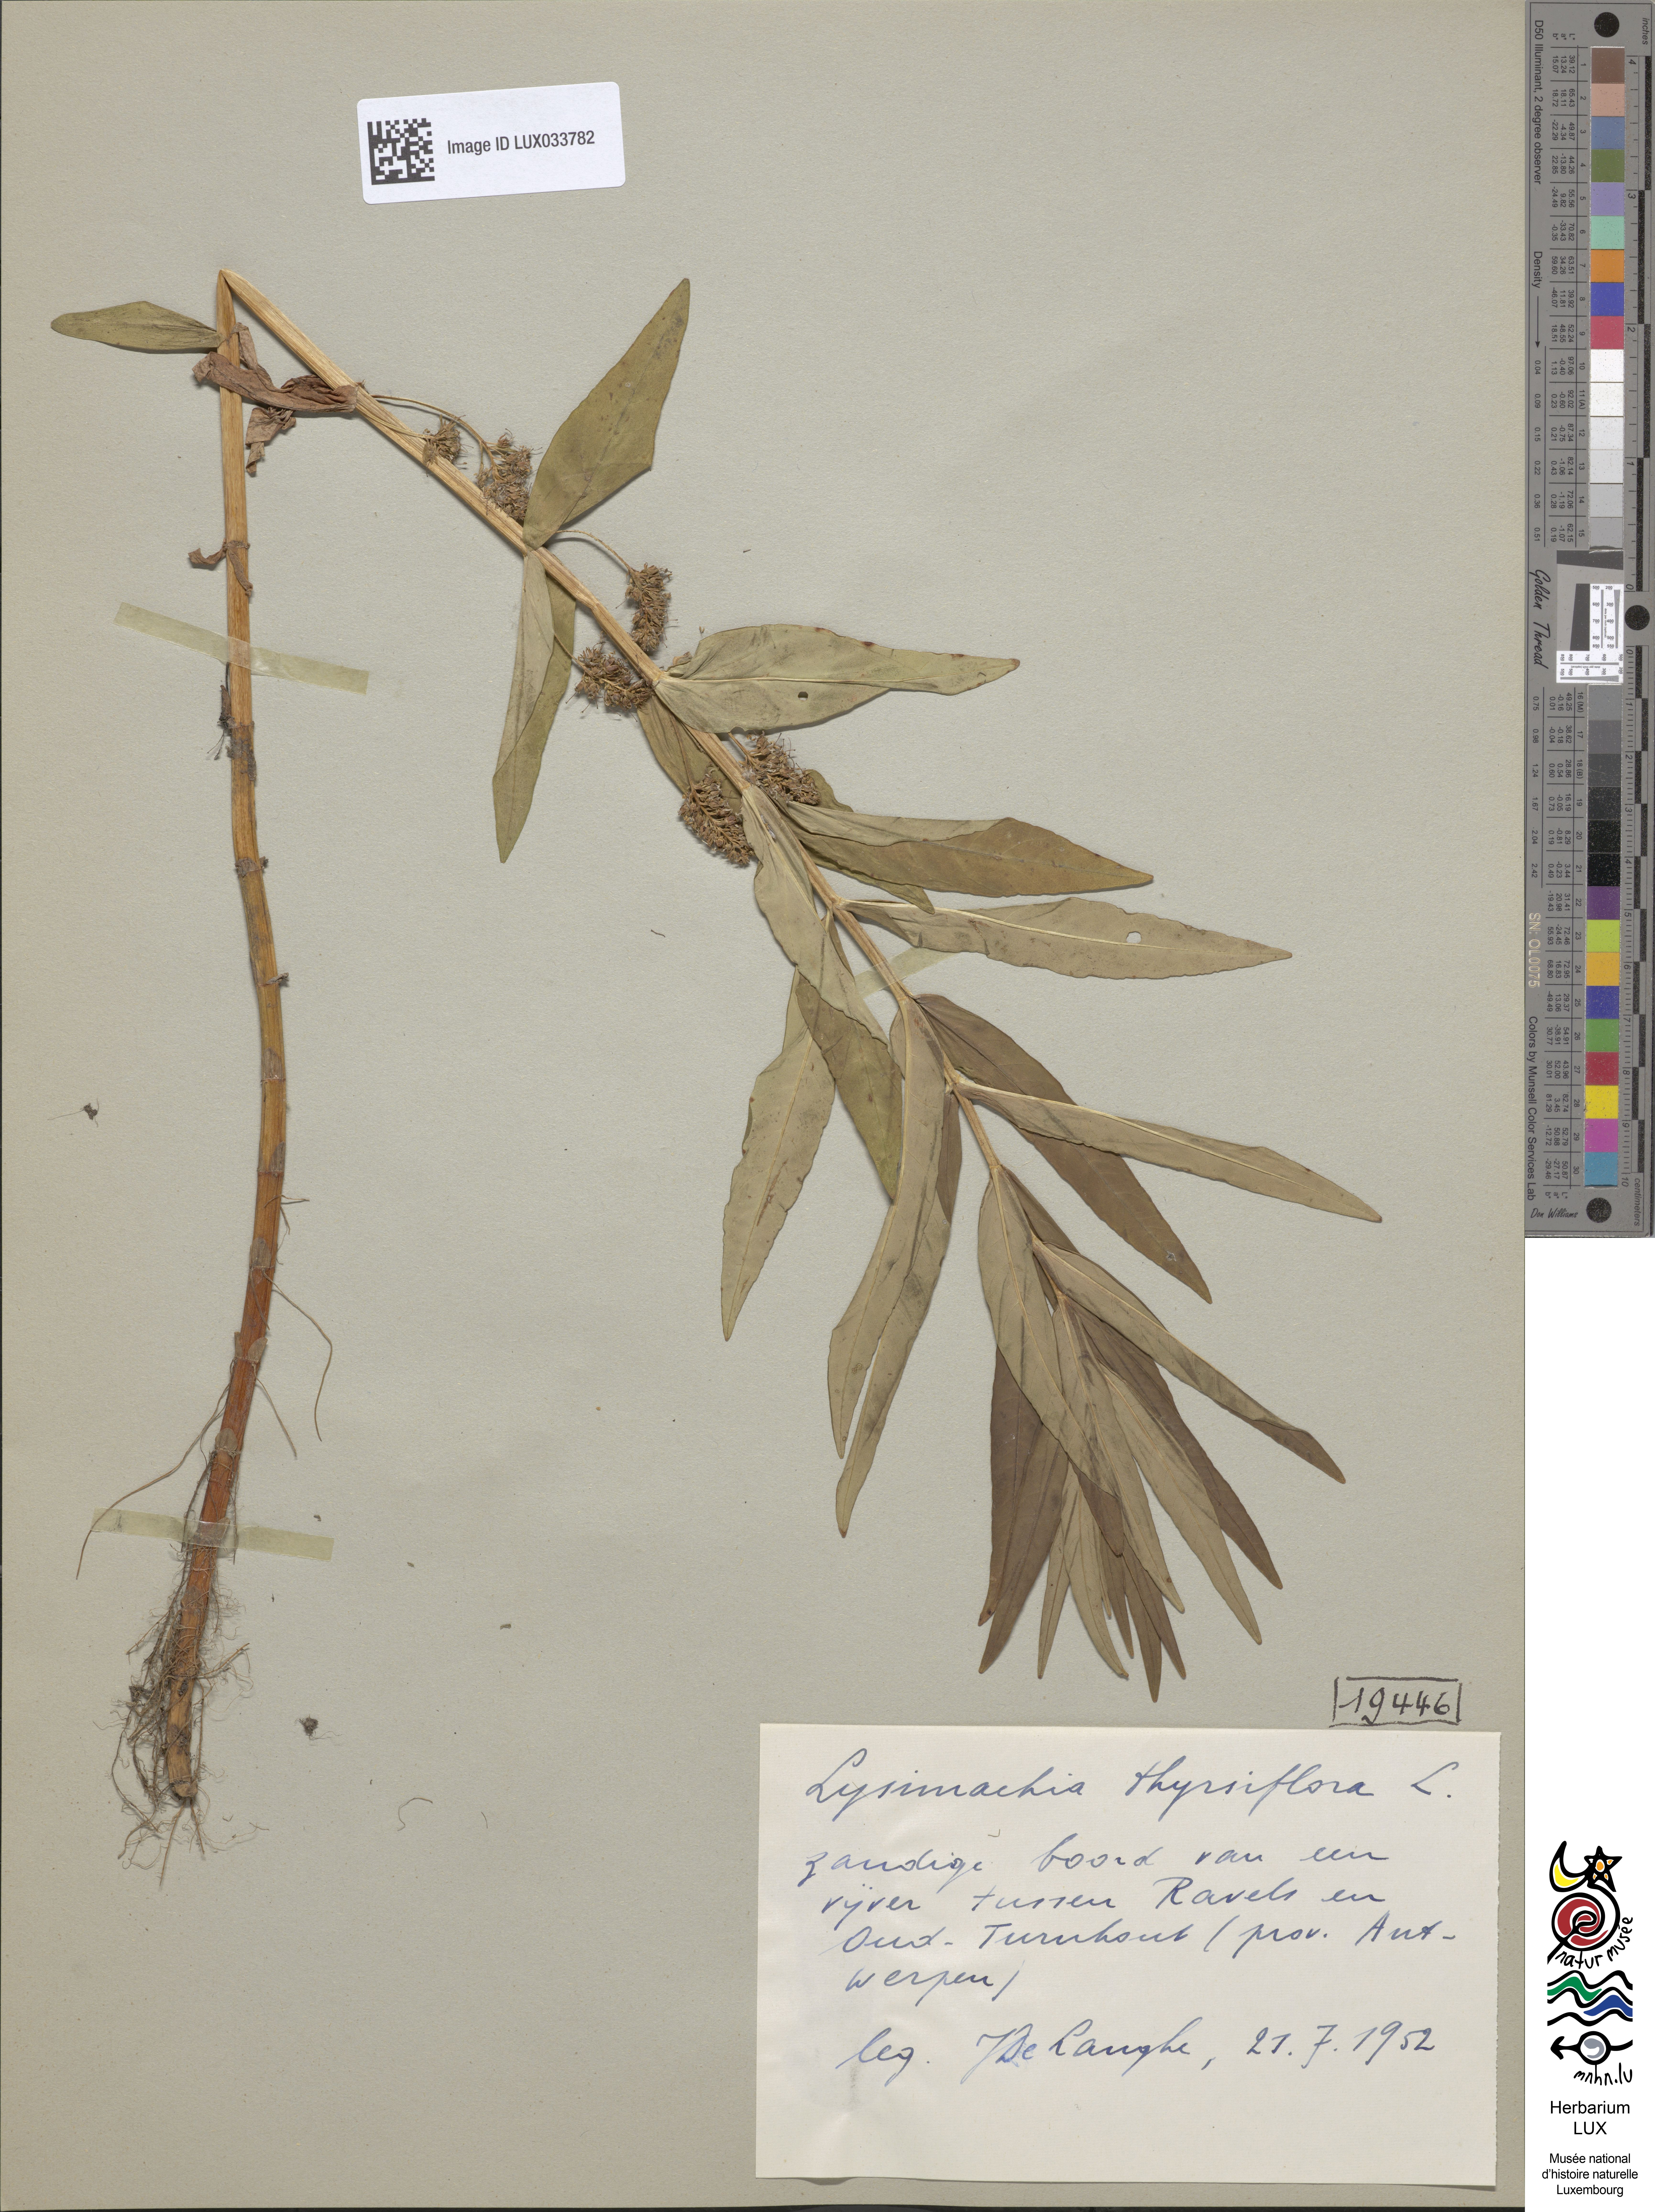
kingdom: Plantae
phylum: Tracheophyta
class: Magnoliopsida
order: Ericales
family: Primulaceae
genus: Lysimachia
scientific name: Lysimachia thyrsiflora
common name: Tufted loosestrife
